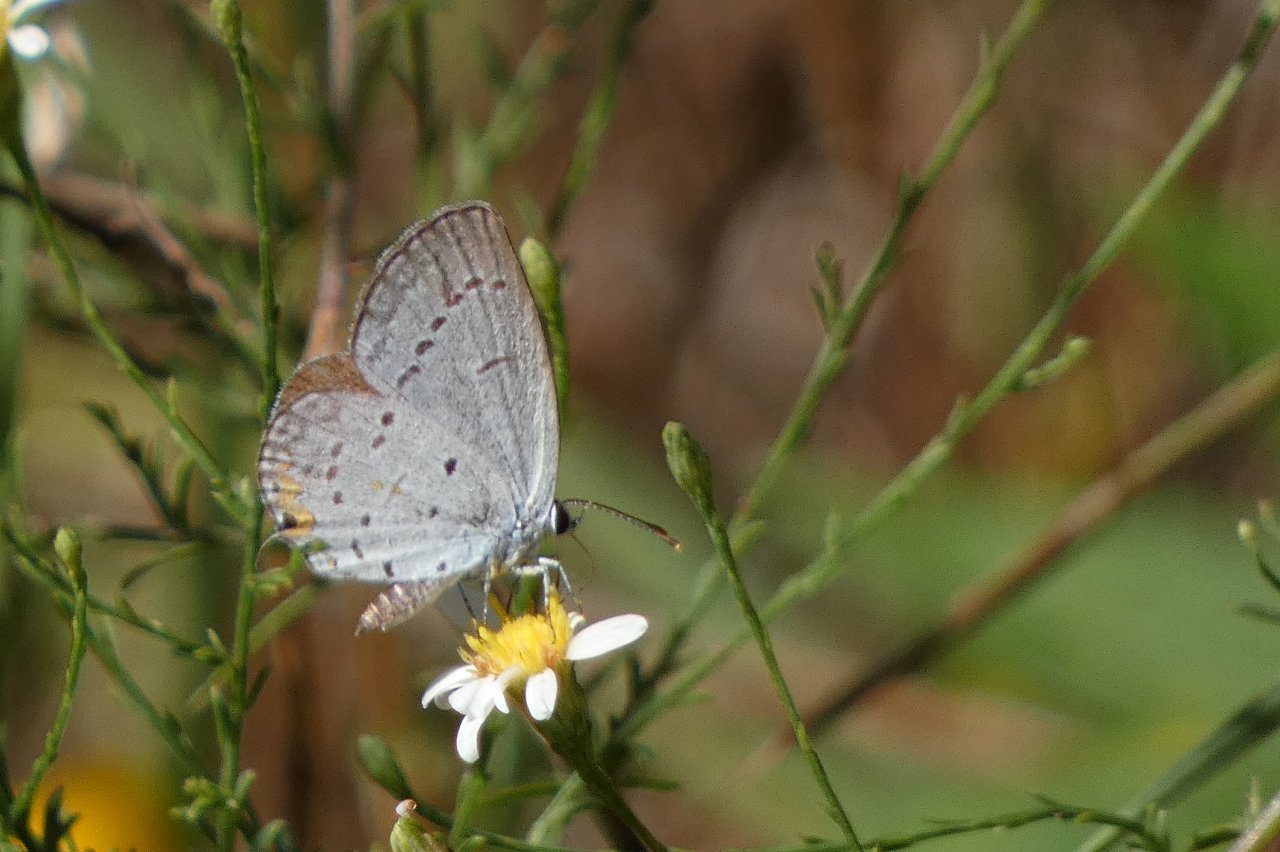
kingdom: Animalia
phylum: Arthropoda
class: Insecta
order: Lepidoptera
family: Lycaenidae
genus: Elkalyce
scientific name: Elkalyce comyntas
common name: Eastern Tailed-Blue
